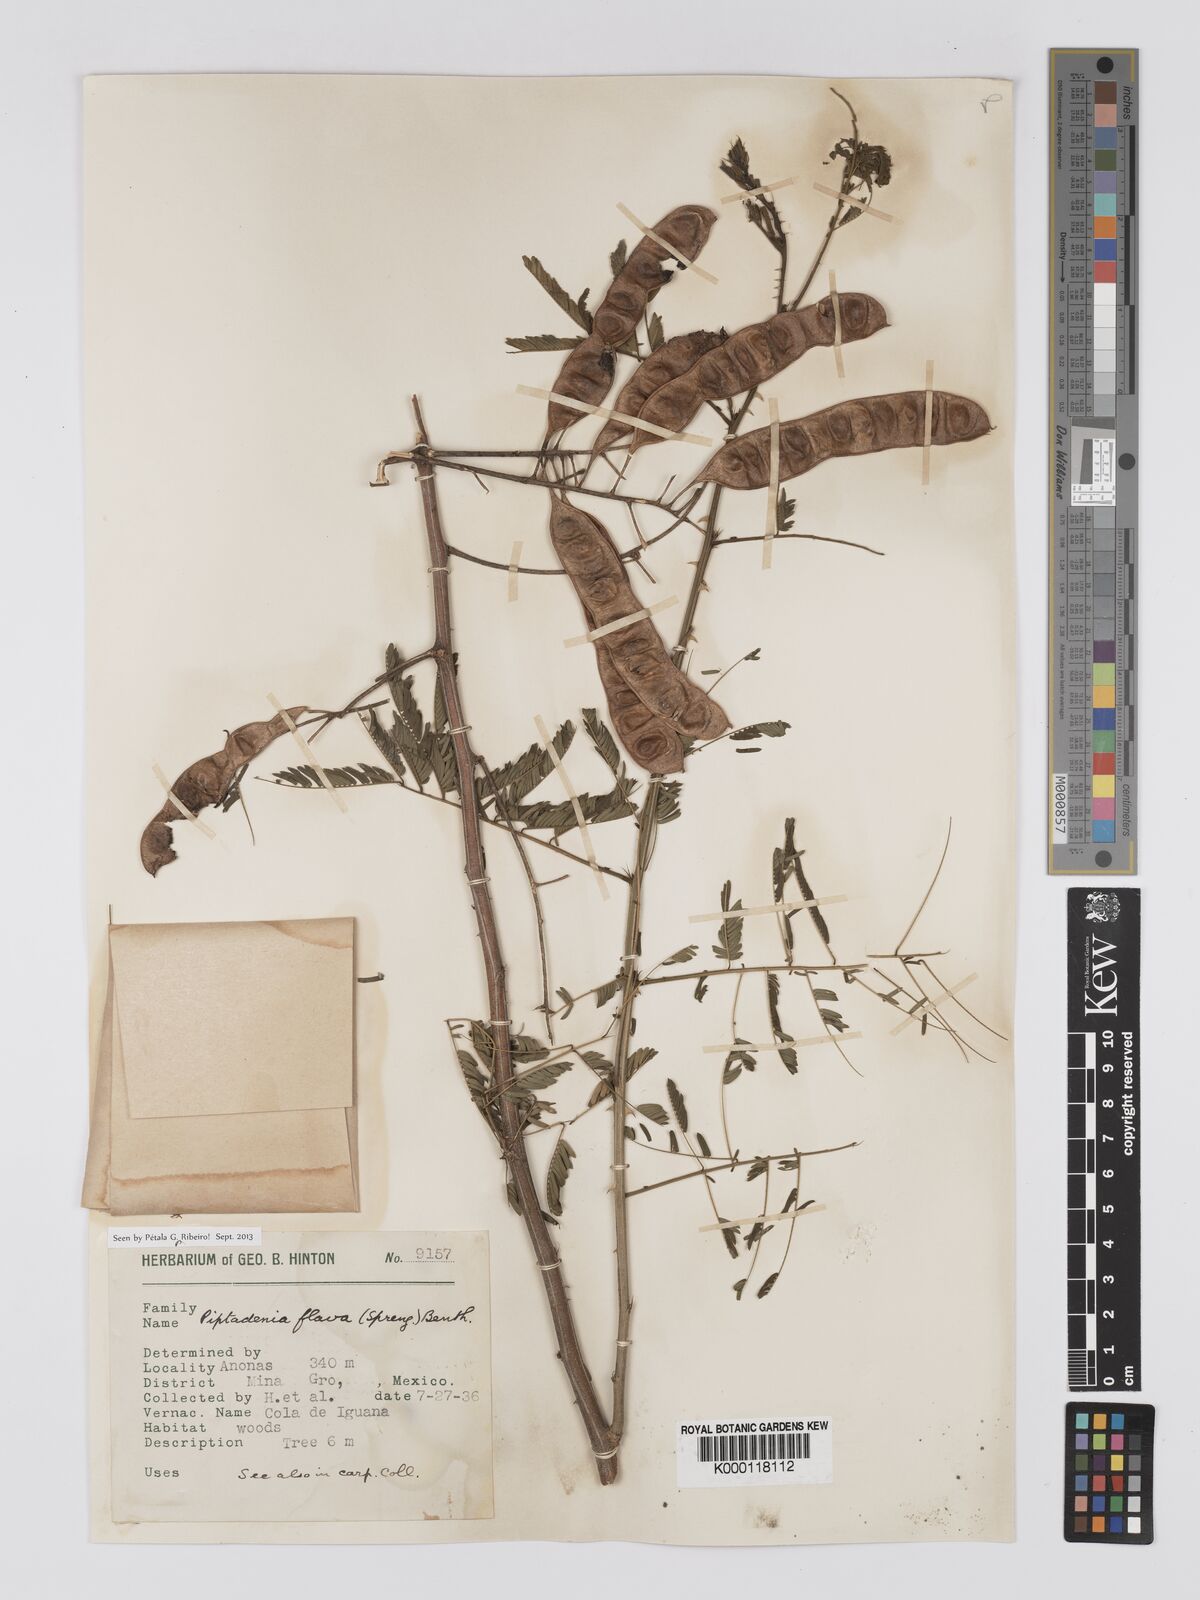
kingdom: Plantae
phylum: Tracheophyta
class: Magnoliopsida
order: Fabales
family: Fabaceae
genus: Piptadenia
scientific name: Piptadenia
